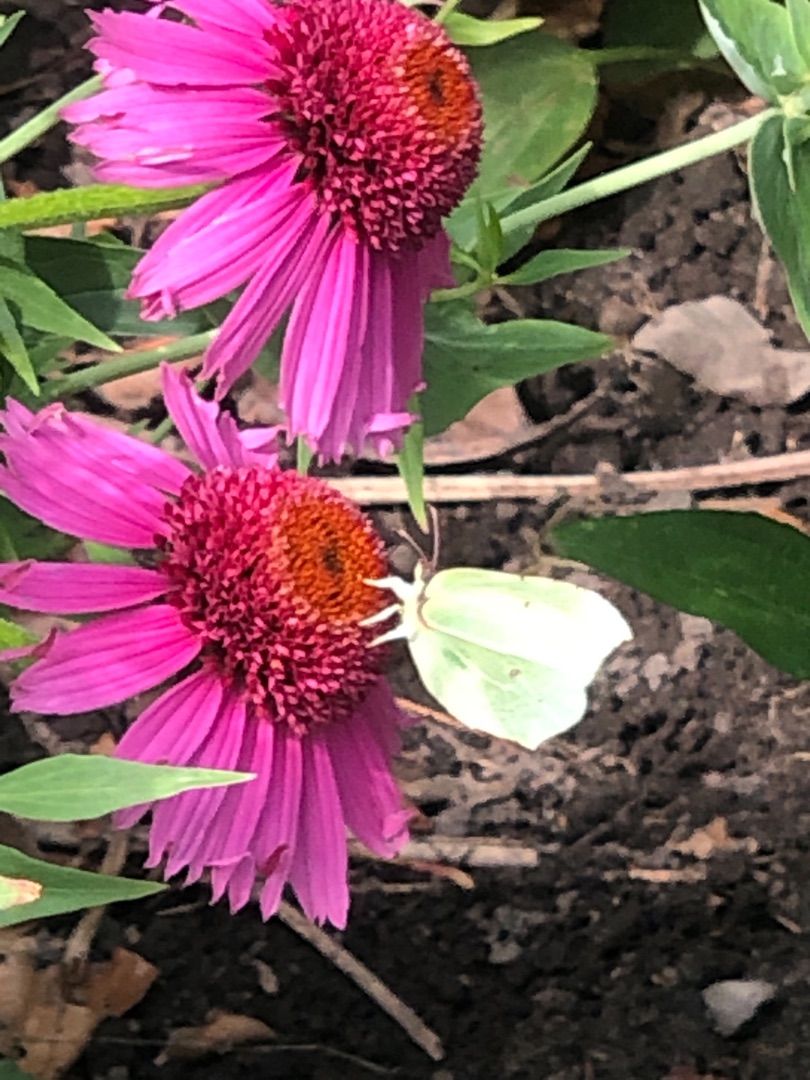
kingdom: Animalia
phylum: Arthropoda
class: Insecta
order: Lepidoptera
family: Pieridae
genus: Gonepteryx
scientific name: Gonepteryx rhamni
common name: Citronsommerfugl
